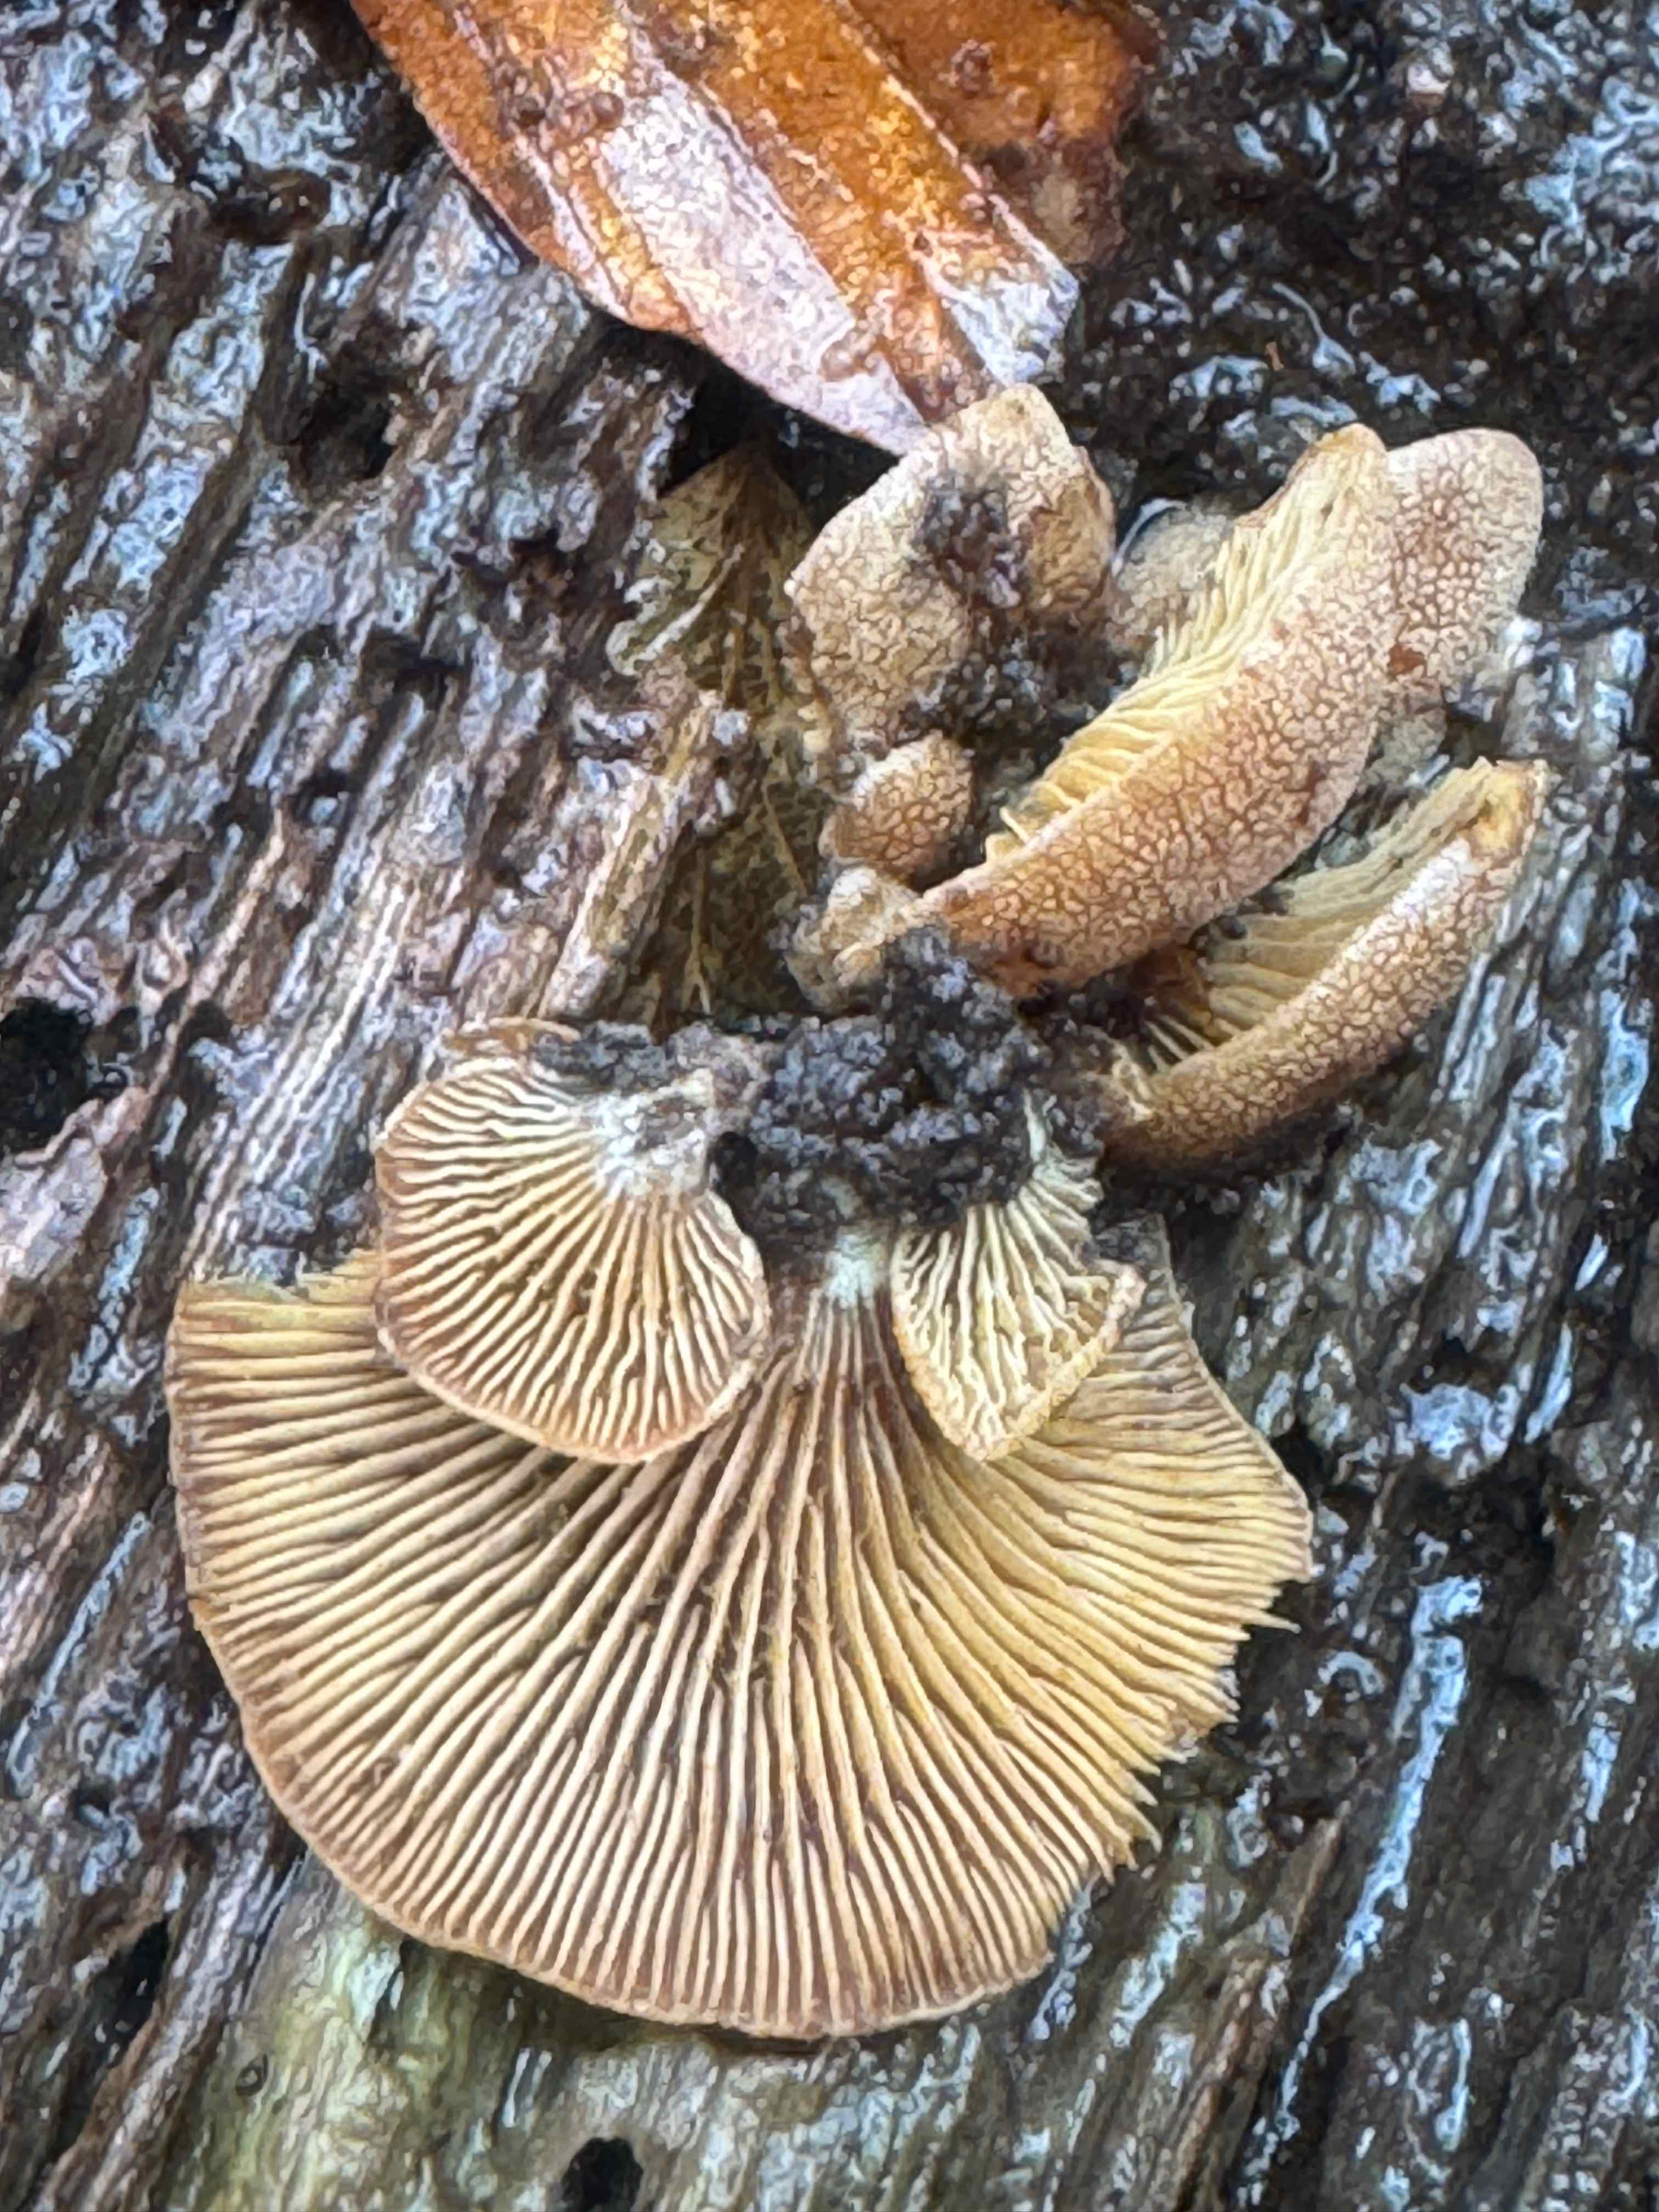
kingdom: Fungi
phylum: Basidiomycota
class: Agaricomycetes
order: Agaricales
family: Mycenaceae
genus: Panellus
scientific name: Panellus stipticus
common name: kliddet epaulethat
